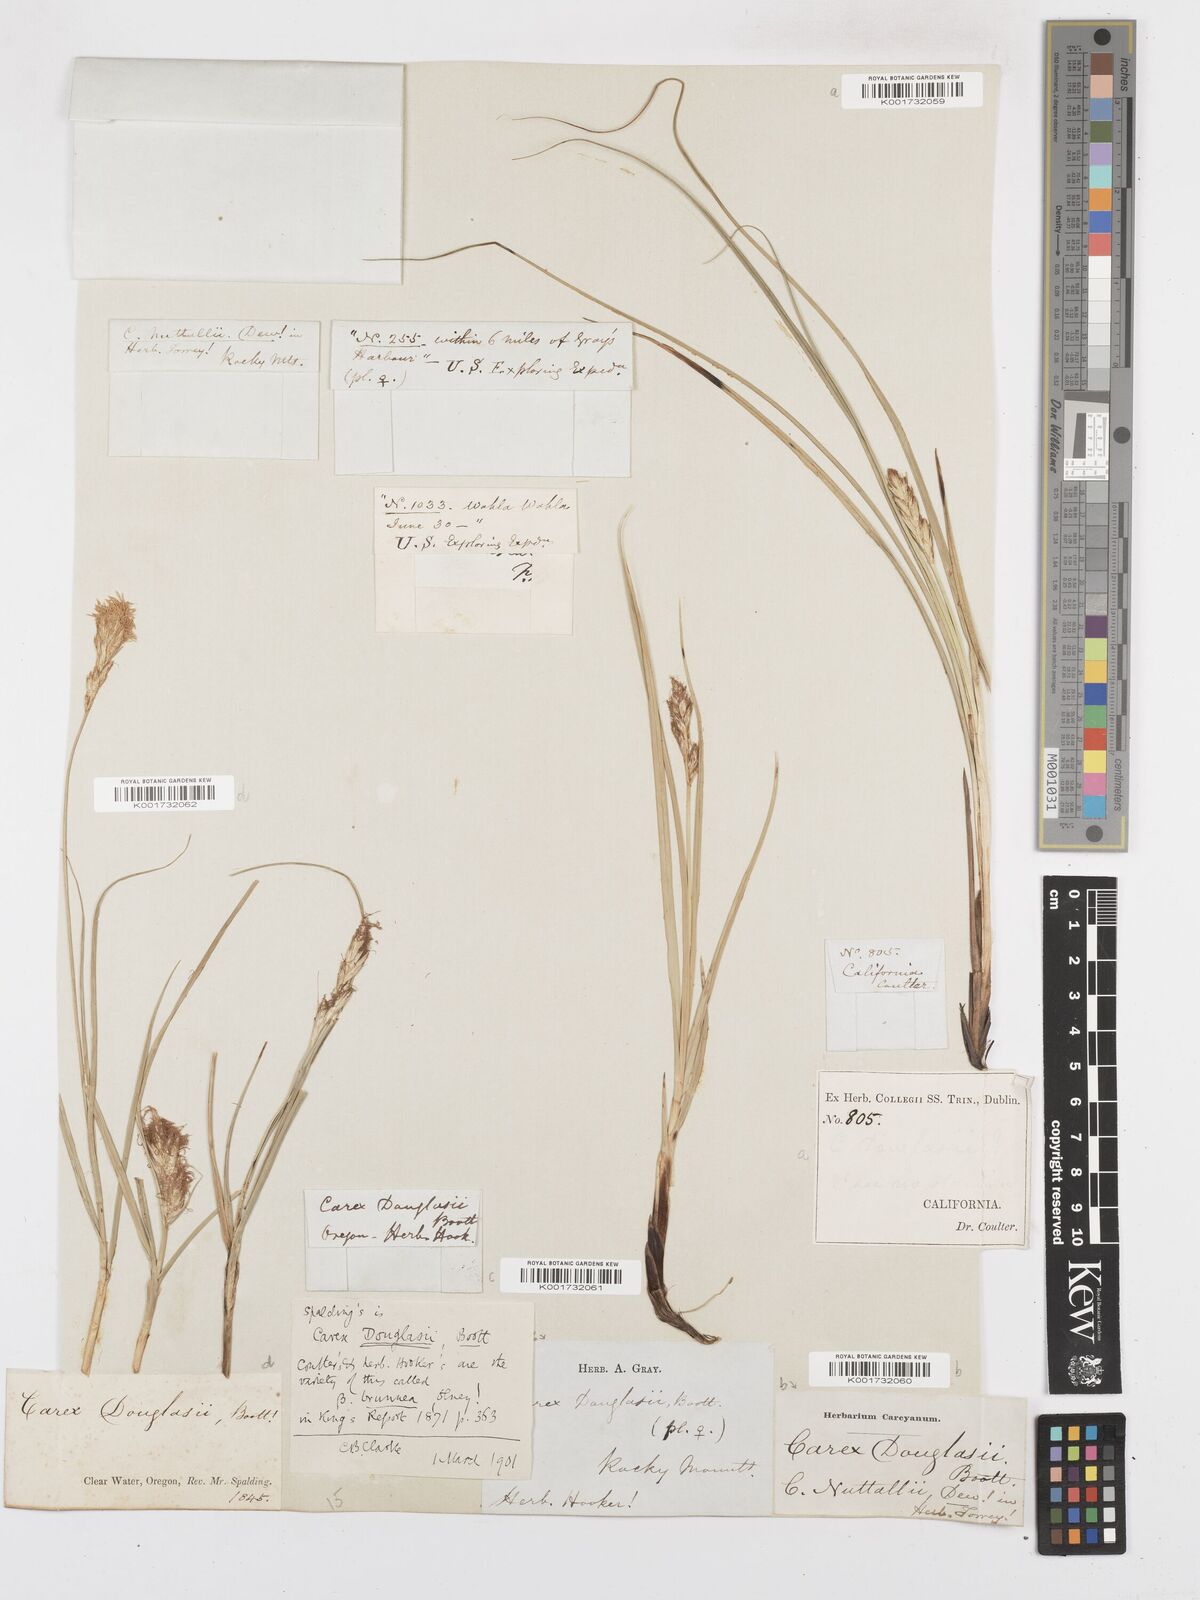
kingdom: Plantae
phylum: Tracheophyta
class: Liliopsida
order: Poales
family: Cyperaceae
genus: Carex
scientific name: Carex douglasii
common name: Douglas' sedge
